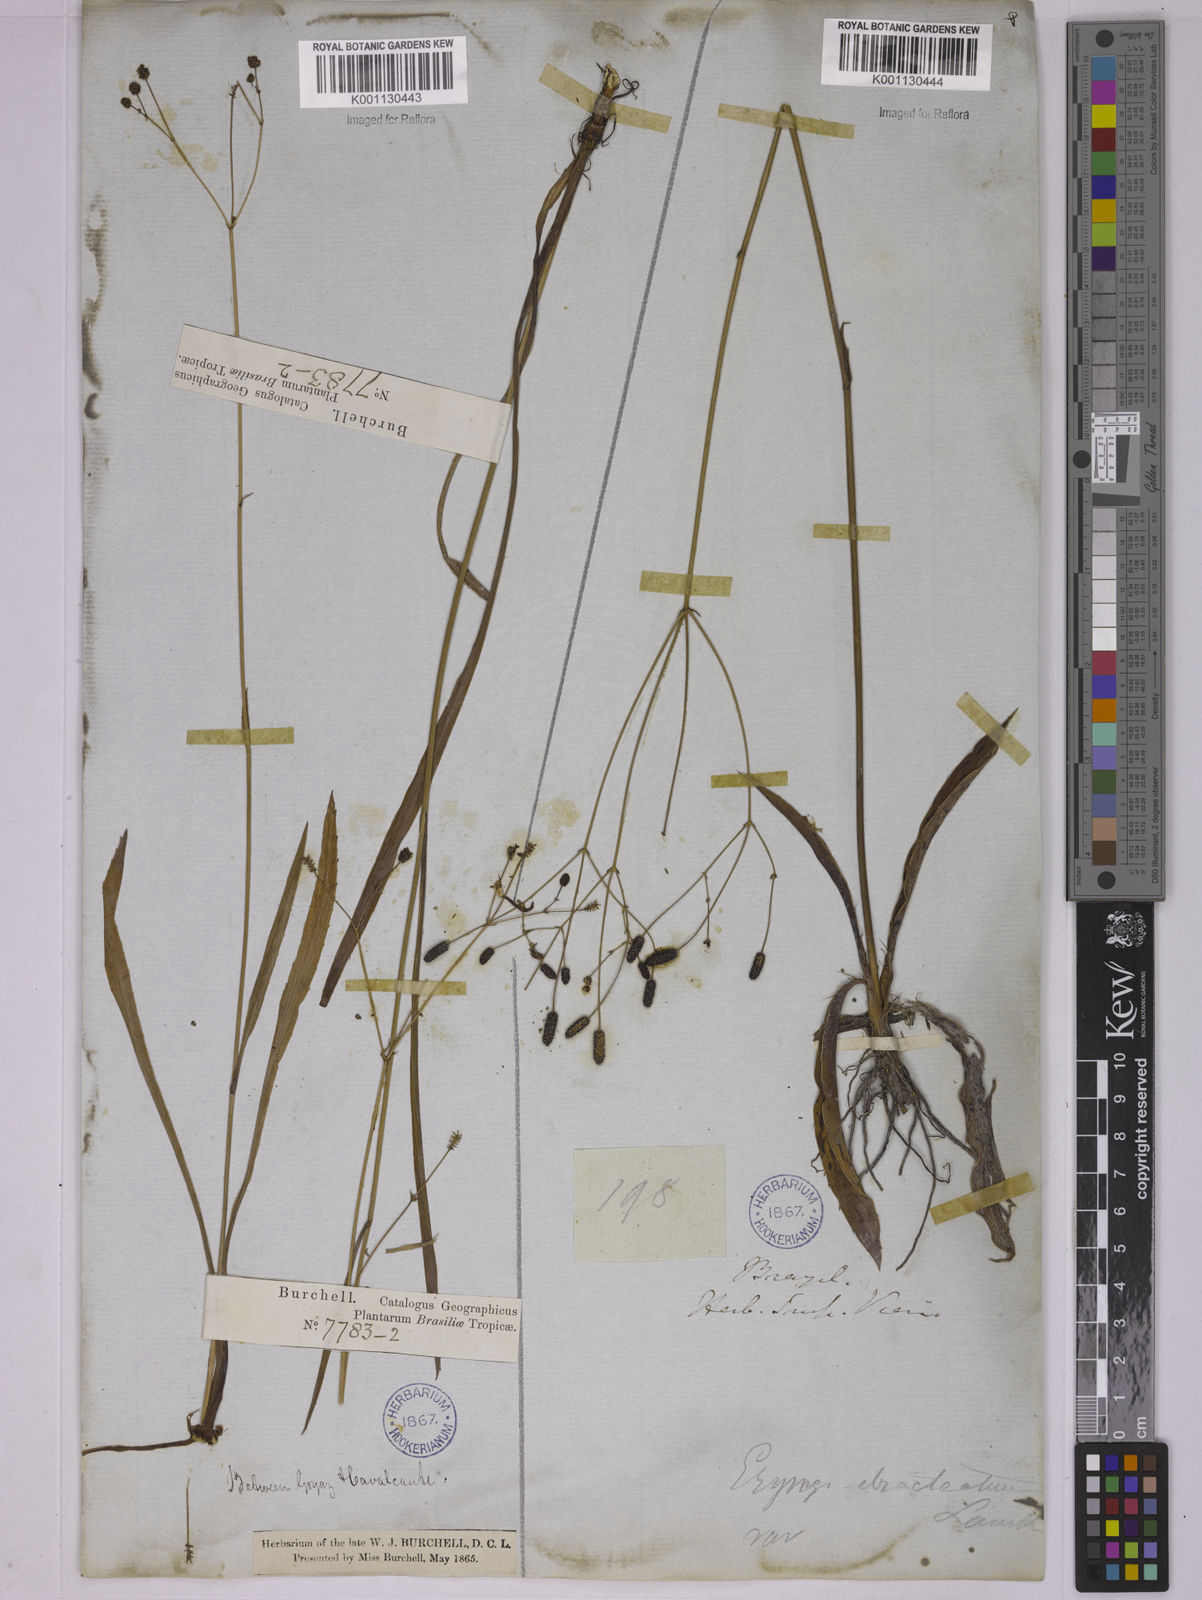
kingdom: Plantae
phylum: Tracheophyta
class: Magnoliopsida
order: Apiales
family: Apiaceae
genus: Eryngium
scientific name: Eryngium ebracteatum
